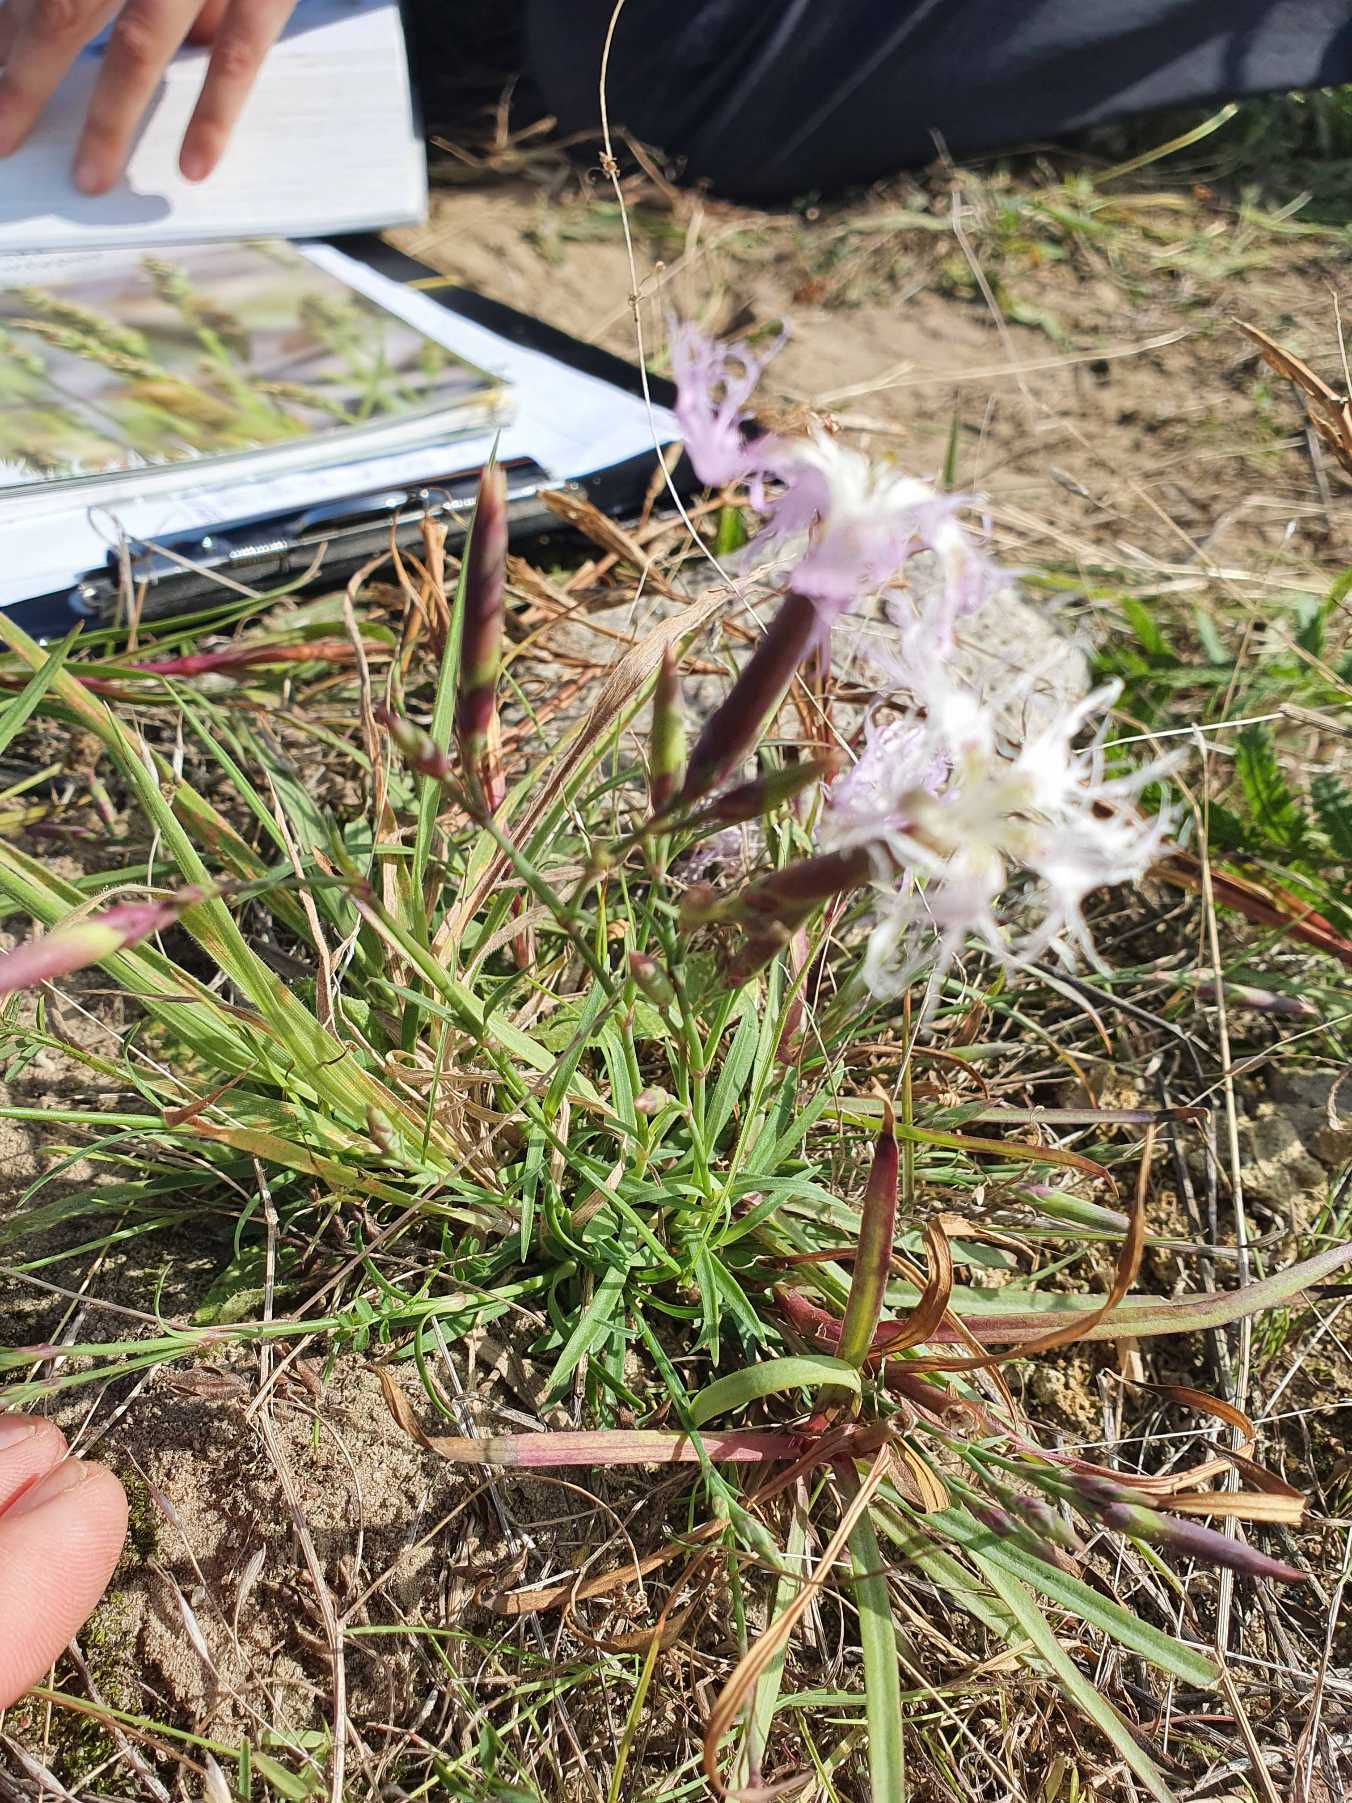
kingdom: Plantae
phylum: Tracheophyta
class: Magnoliopsida
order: Caryophyllales
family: Caryophyllaceae
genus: Dianthus
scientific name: Dianthus superbus
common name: Strand-nellike
